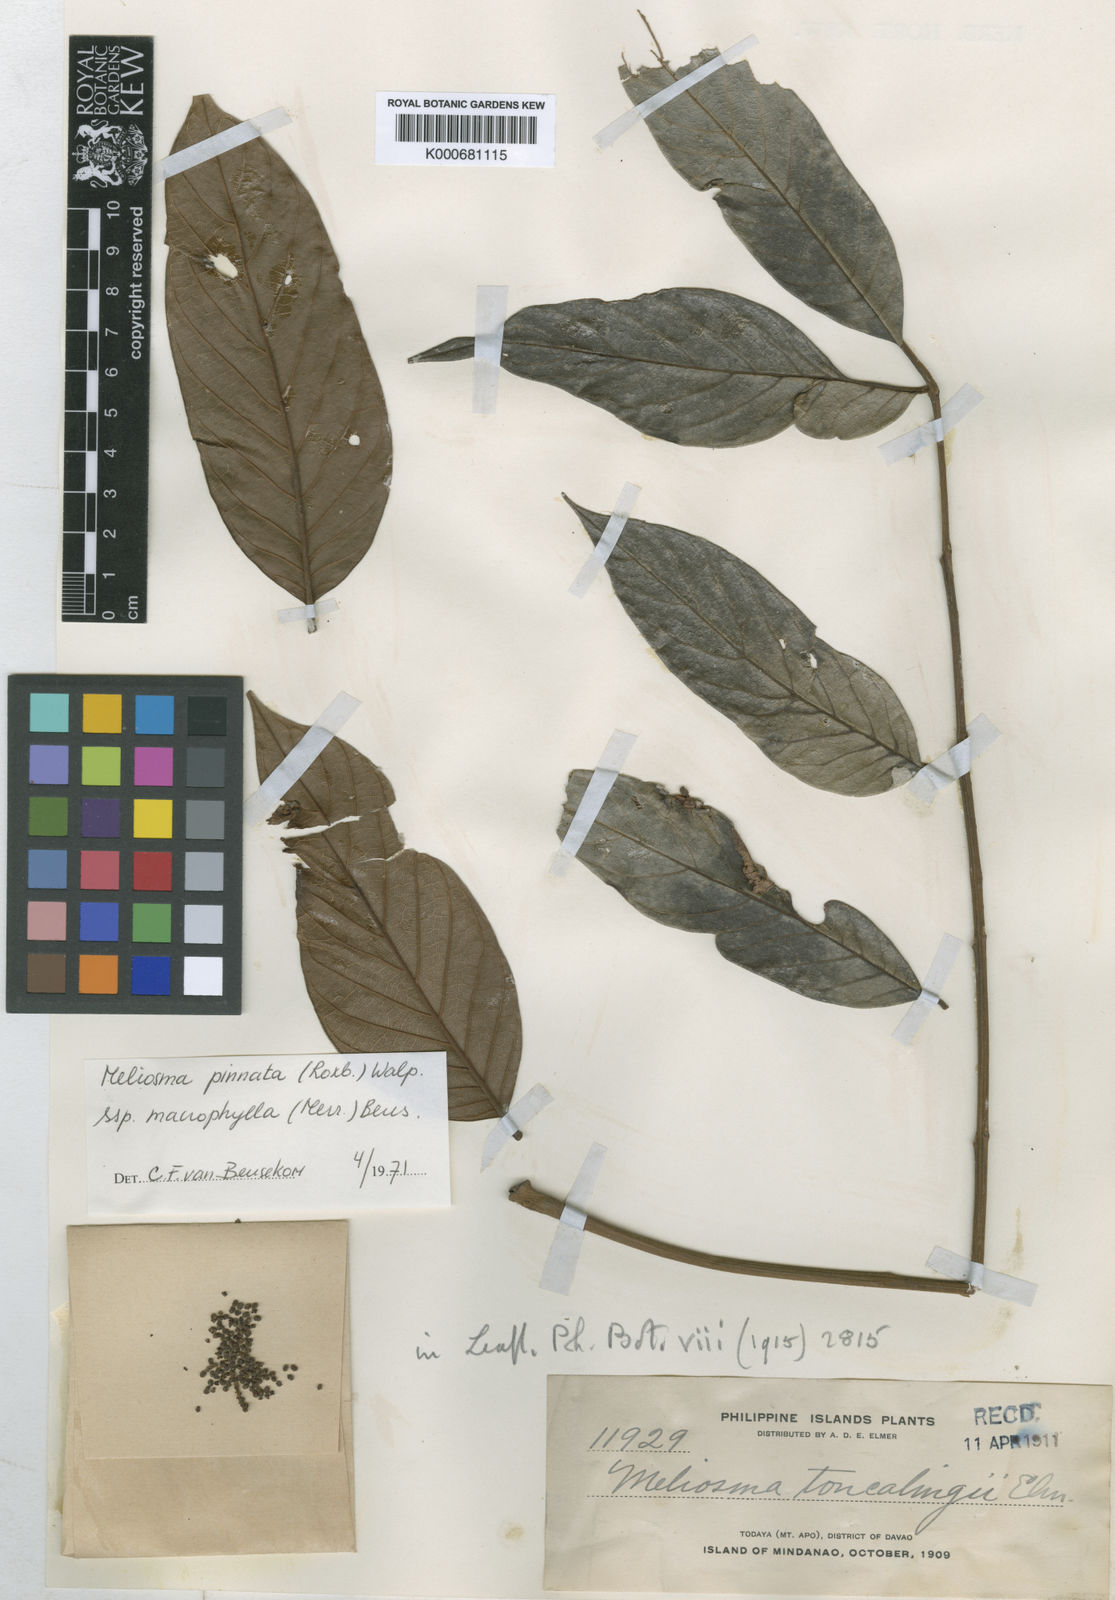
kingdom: Plantae
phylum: Tracheophyta
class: Magnoliopsida
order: Proteales
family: Sabiaceae
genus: Meliosma
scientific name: Meliosma pinnata
